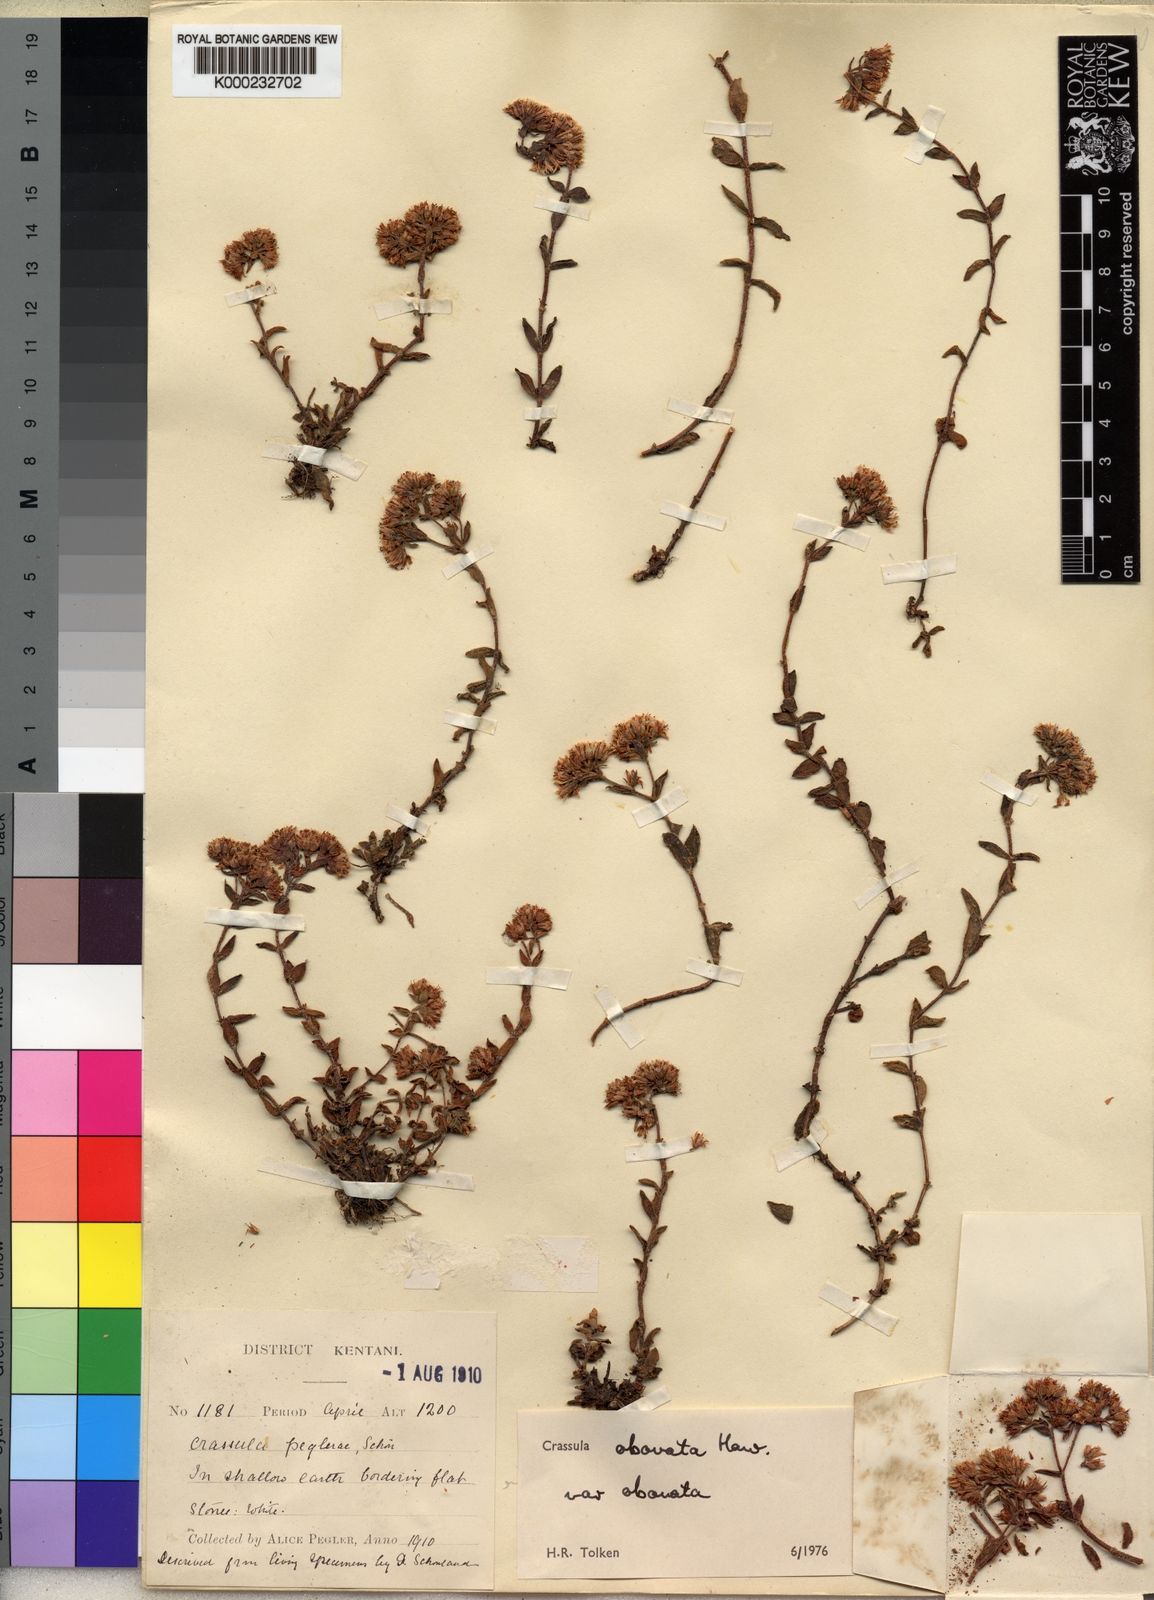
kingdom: Plantae
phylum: Tracheophyta
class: Magnoliopsida
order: Saxifragales
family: Crassulaceae
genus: Crassula
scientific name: Crassula obovata
